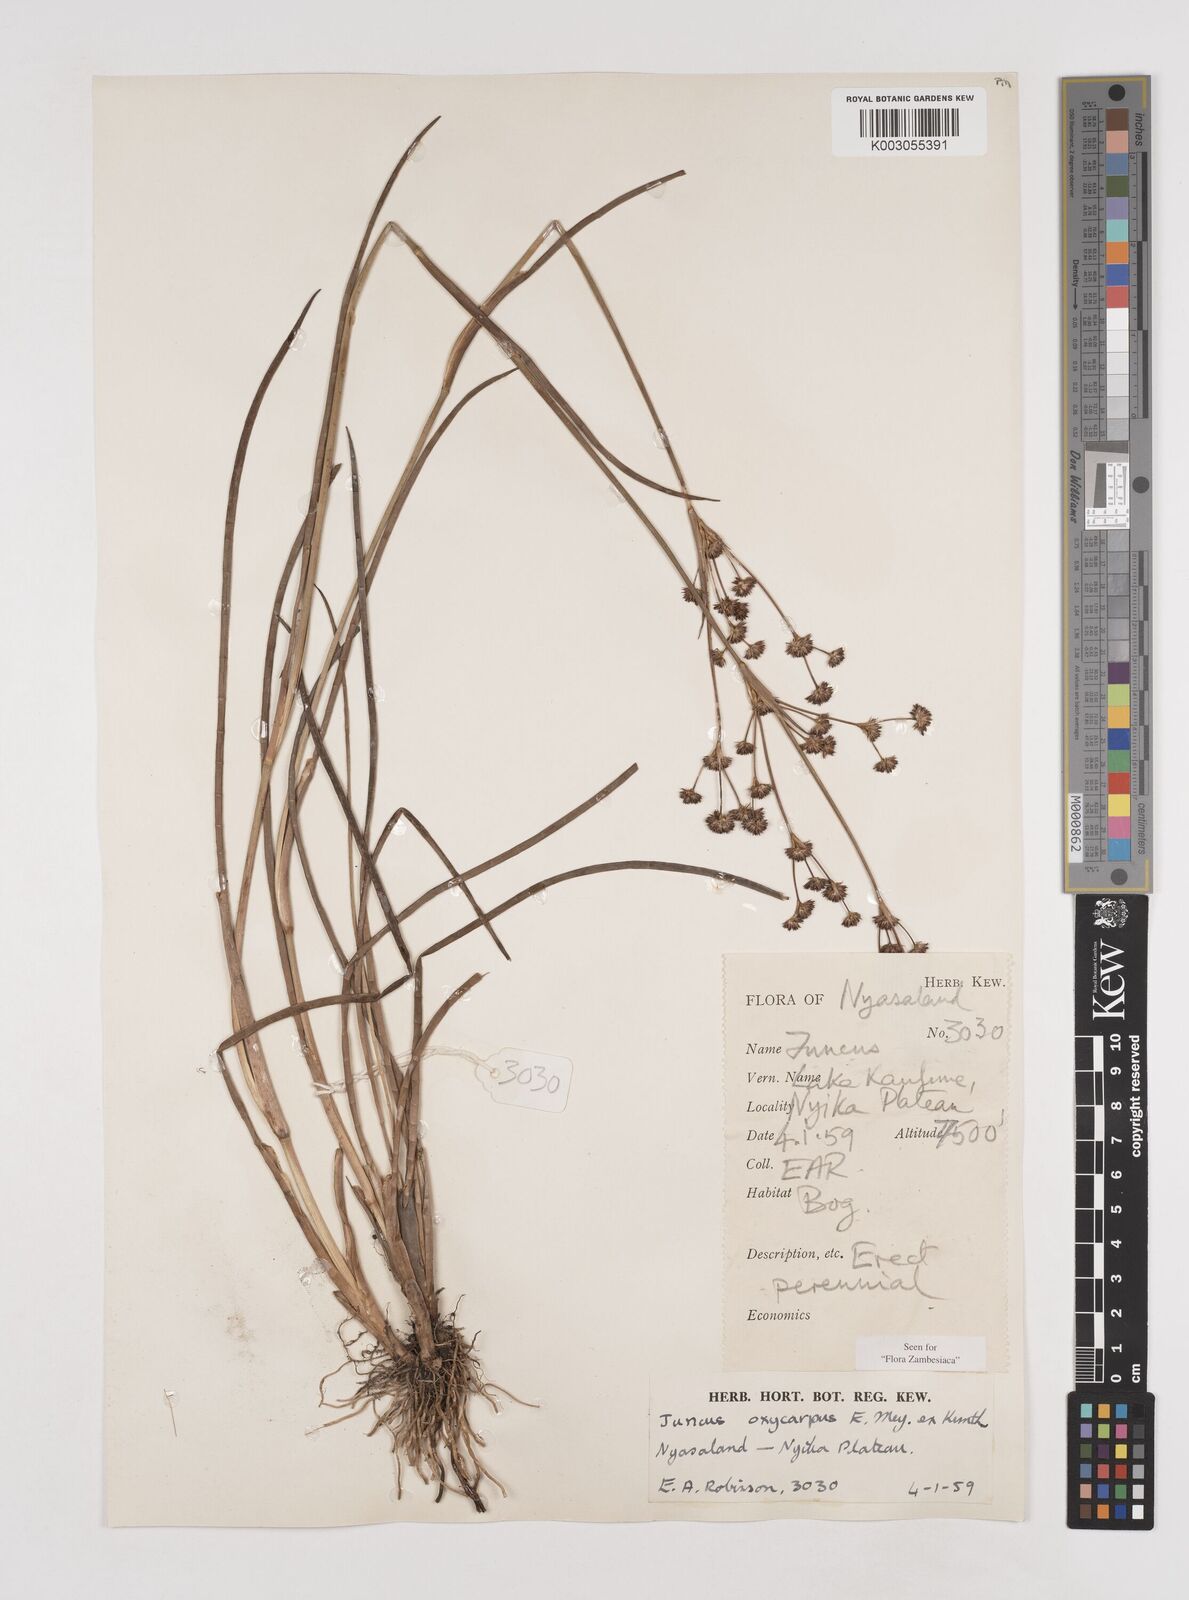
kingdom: Plantae
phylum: Tracheophyta
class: Liliopsida
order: Poales
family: Juncaceae
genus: Juncus
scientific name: Juncus oxycarpus
